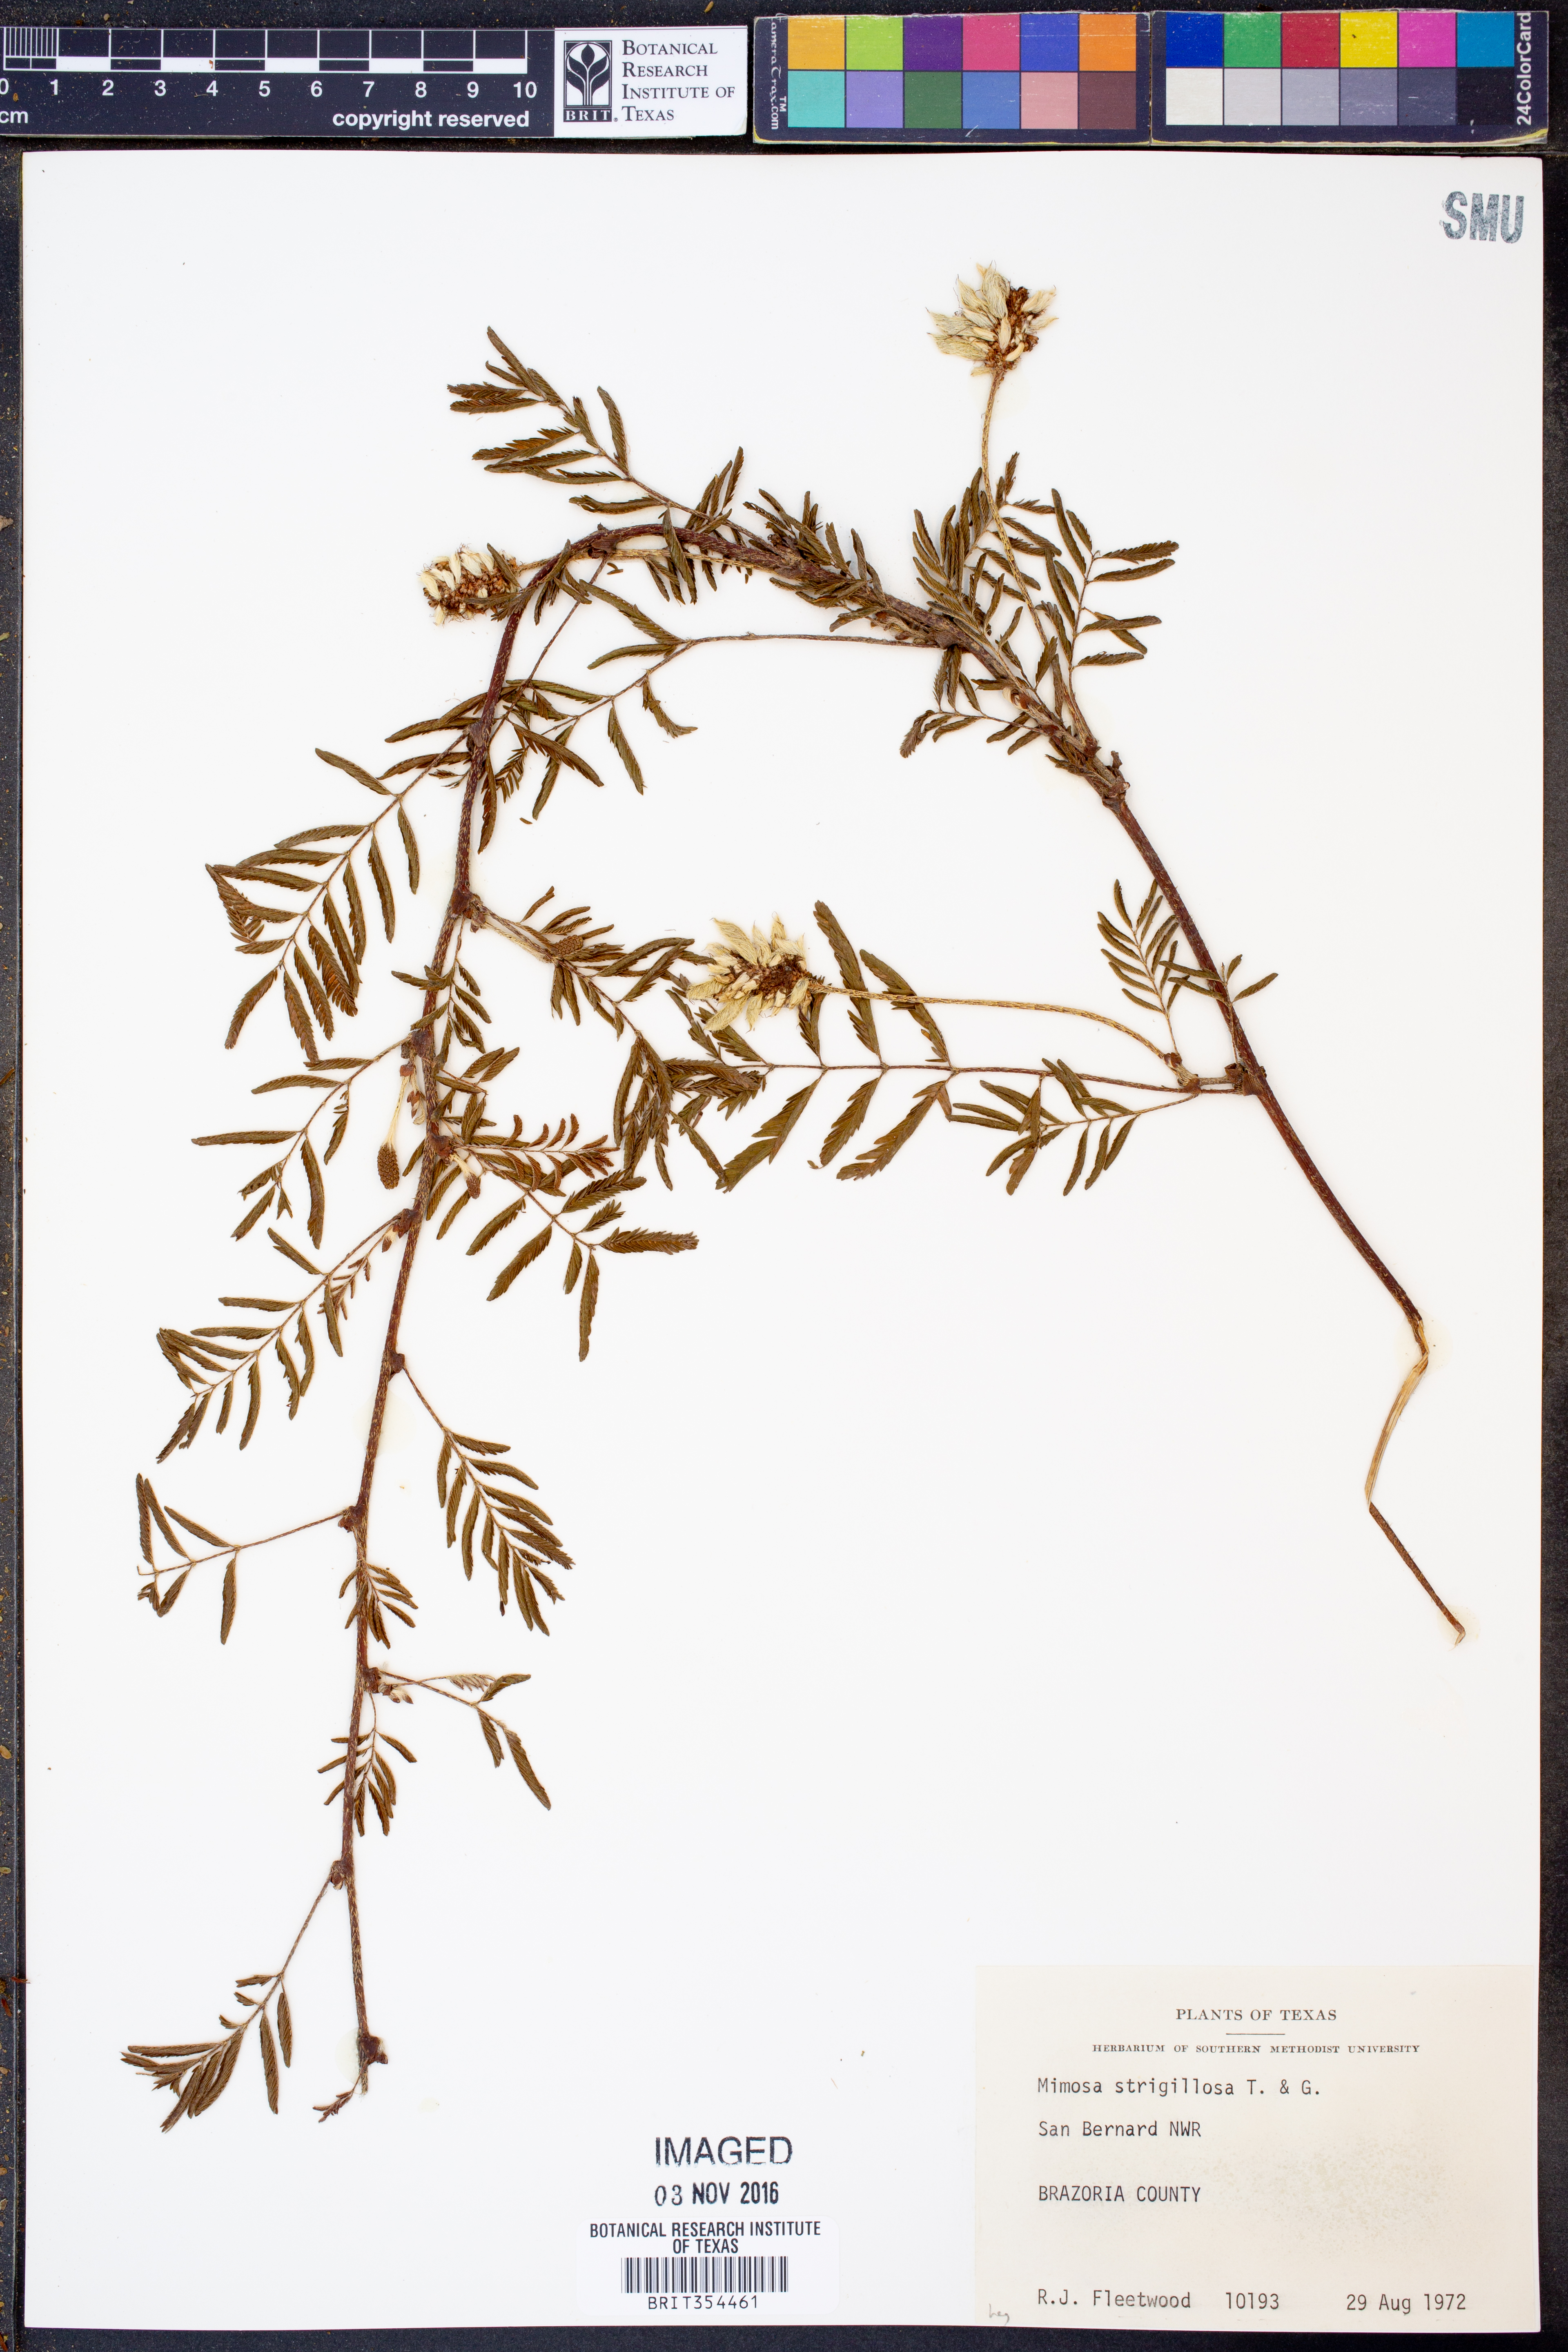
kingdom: Plantae
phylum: Tracheophyta
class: Magnoliopsida
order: Fabales
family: Fabaceae
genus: Mimosa
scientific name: Mimosa strigillosa
